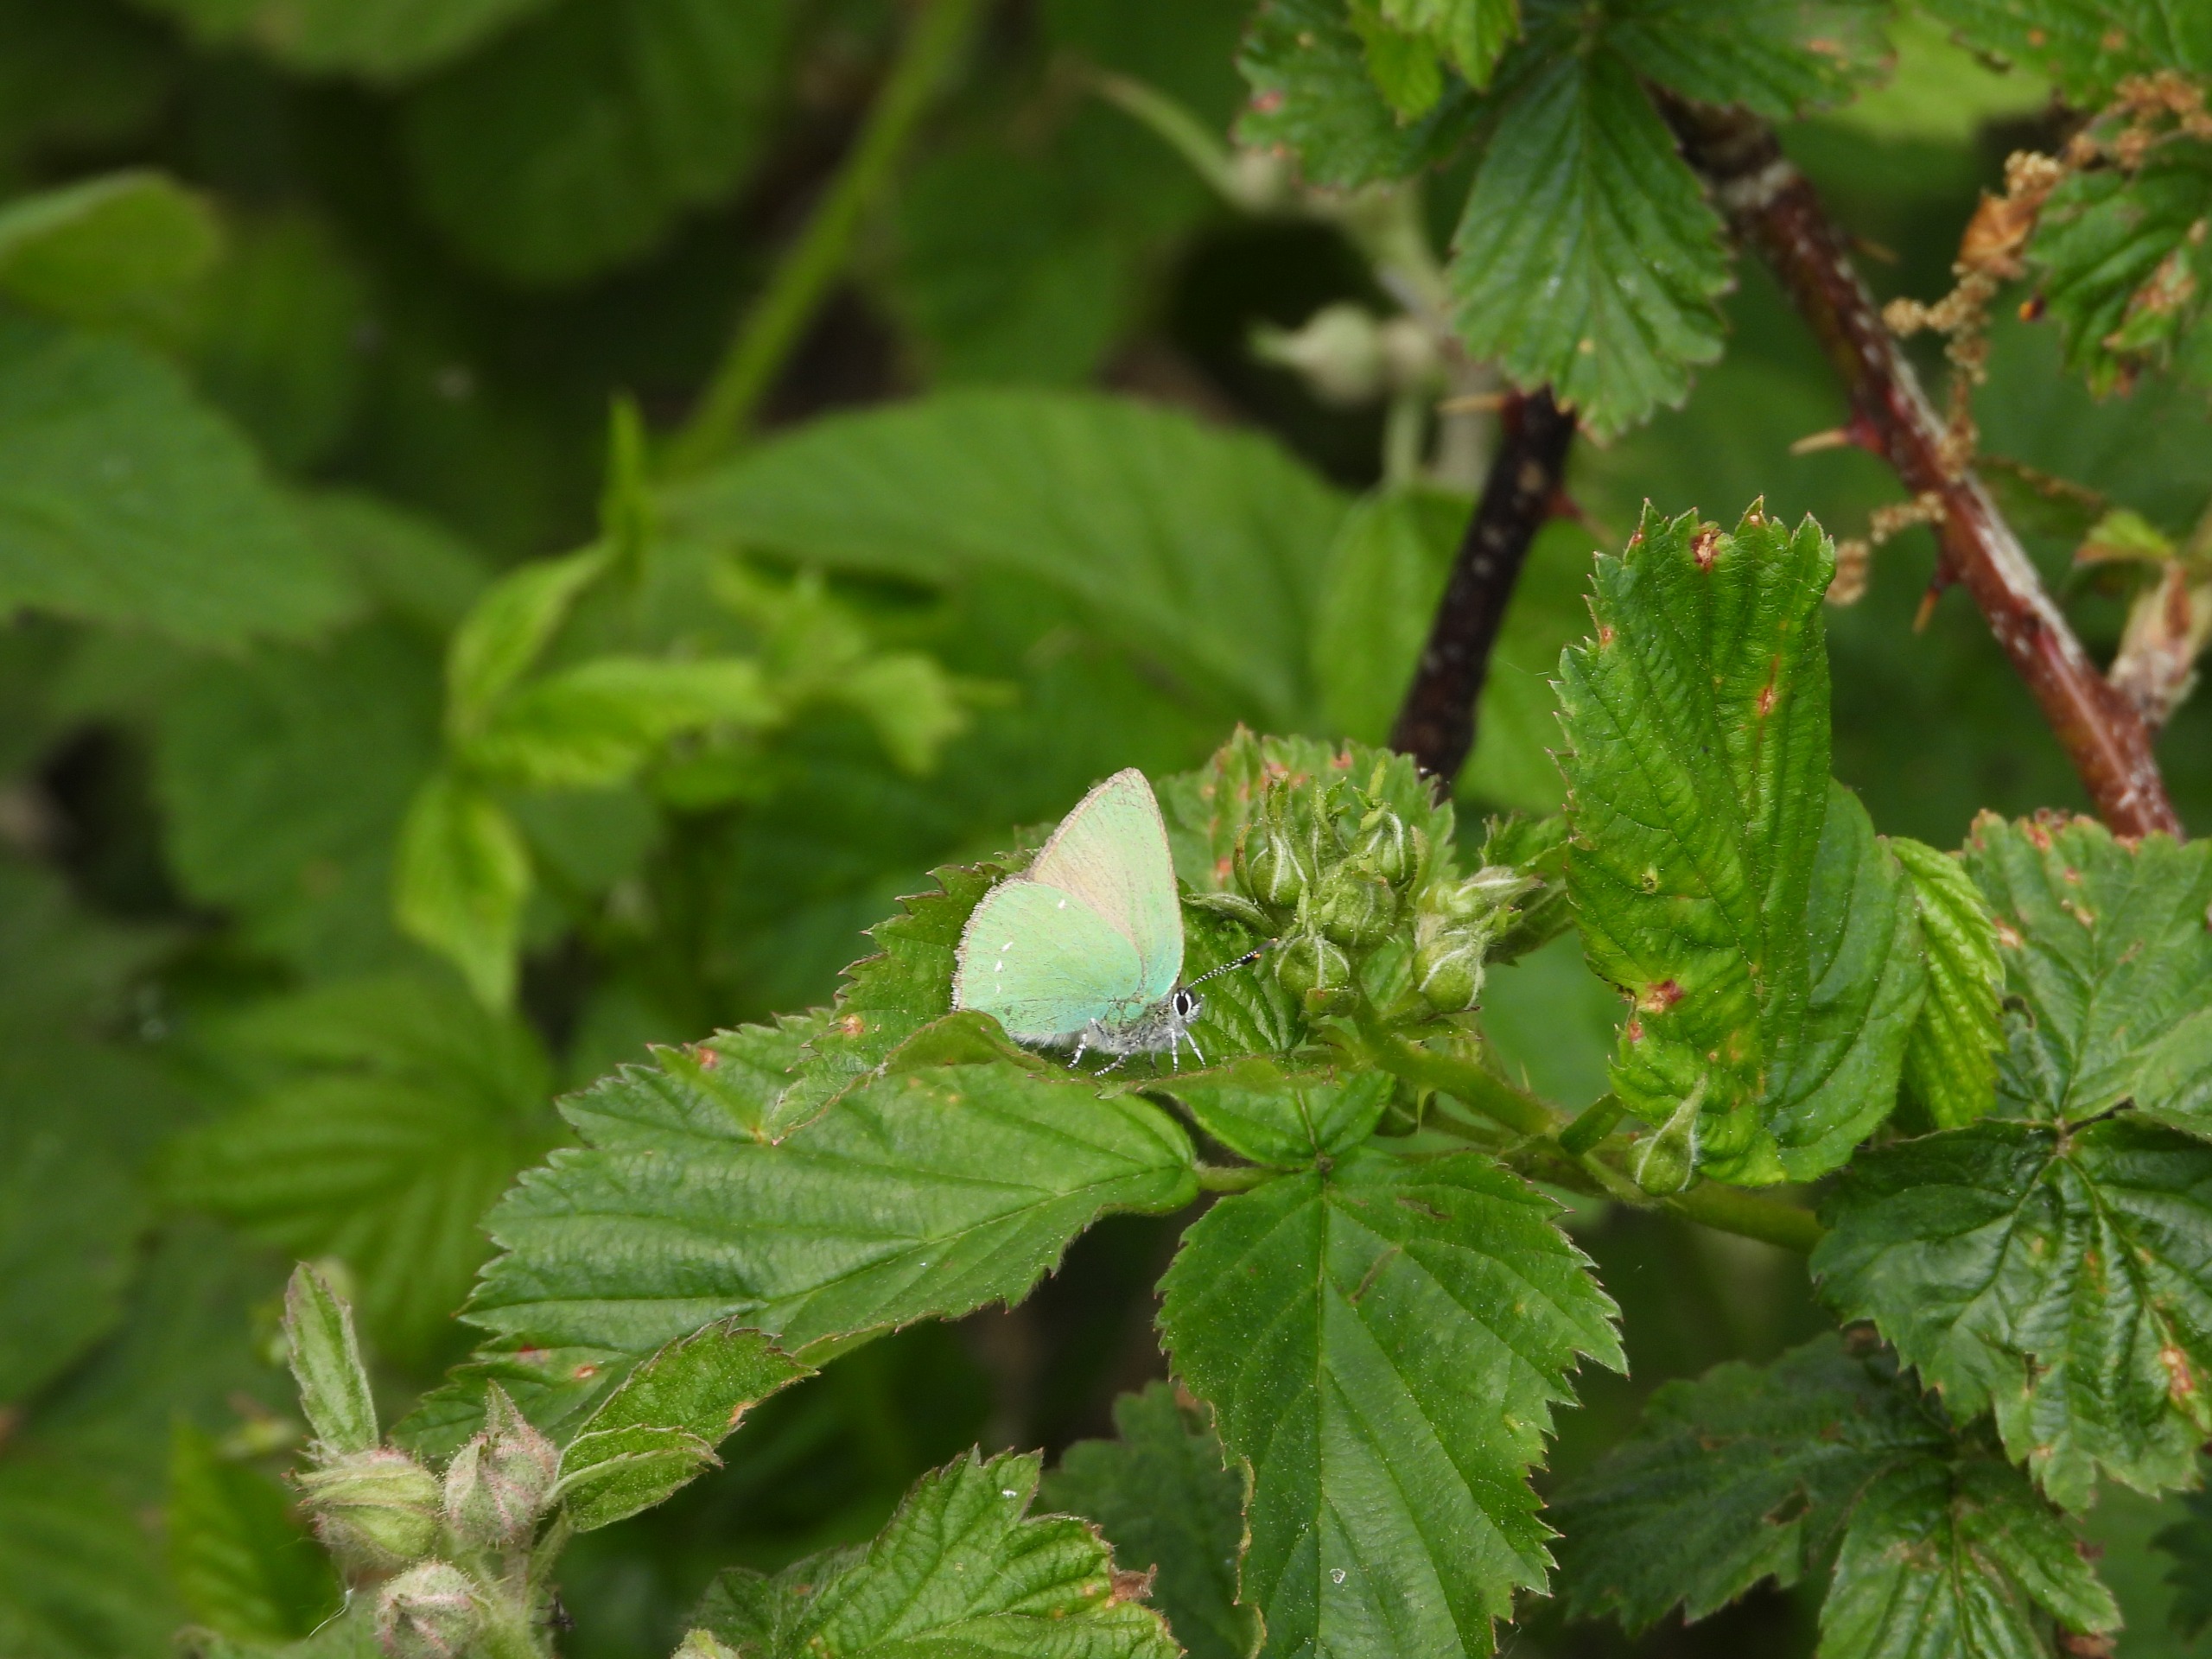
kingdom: Animalia
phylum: Arthropoda
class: Insecta
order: Lepidoptera
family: Lycaenidae
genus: Callophrys
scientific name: Callophrys rubi
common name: Grøn busksommerfugl
